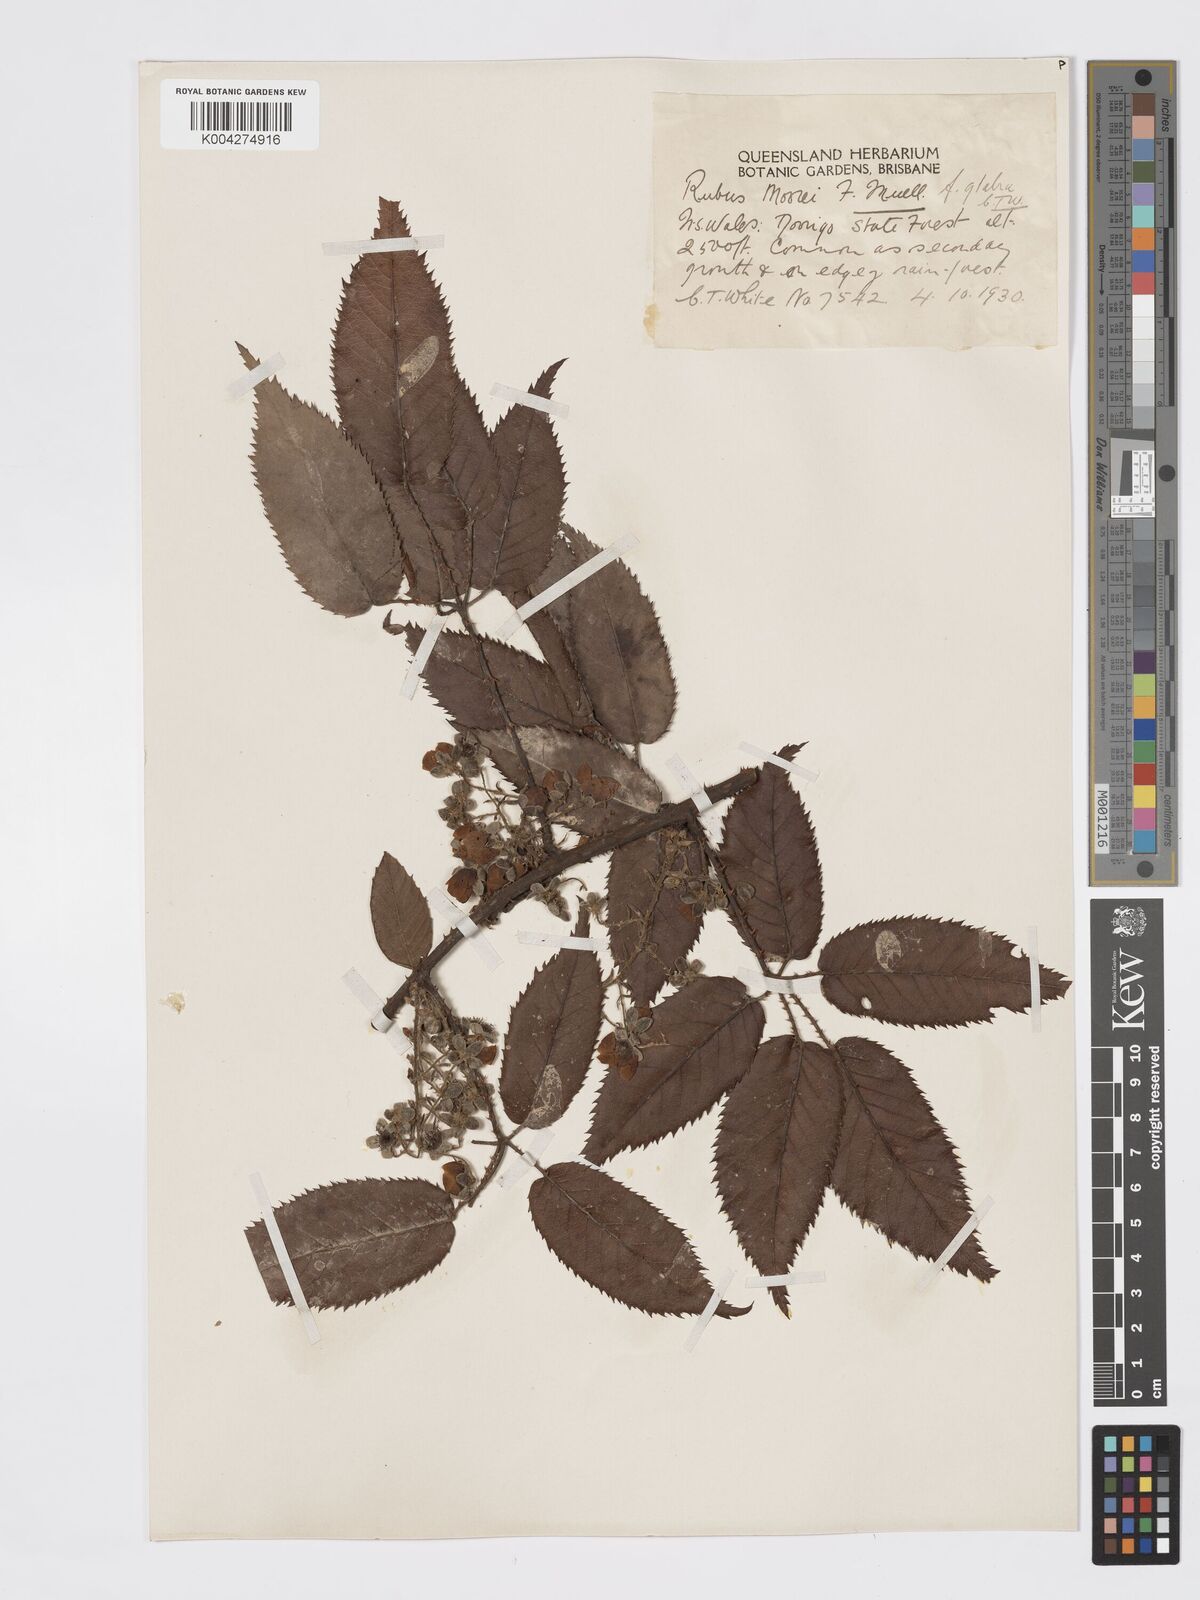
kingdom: Plantae
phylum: Tracheophyta
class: Magnoliopsida
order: Rosales
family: Rosaceae
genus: Rubus
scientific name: Rubus moorei
